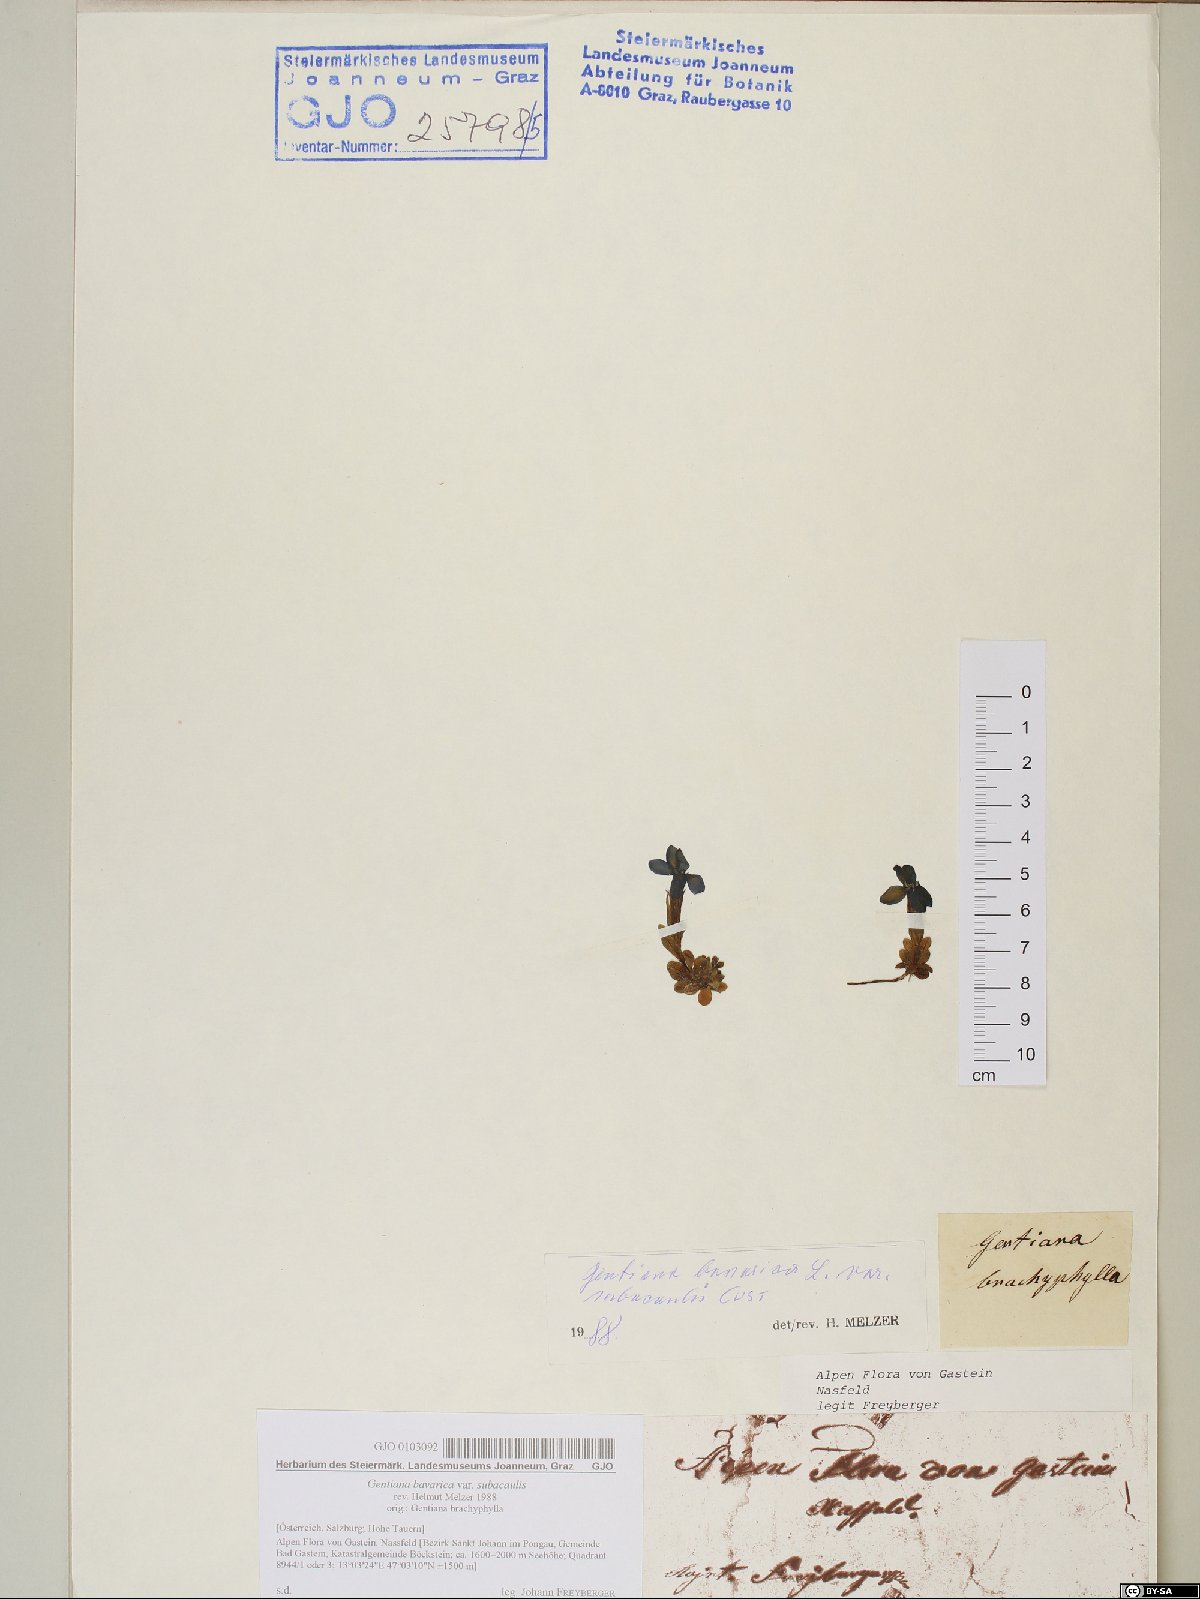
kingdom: Plantae
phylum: Tracheophyta
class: Magnoliopsida
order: Gentianales
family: Gentianaceae
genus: Gentiana
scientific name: Gentiana bavarica
